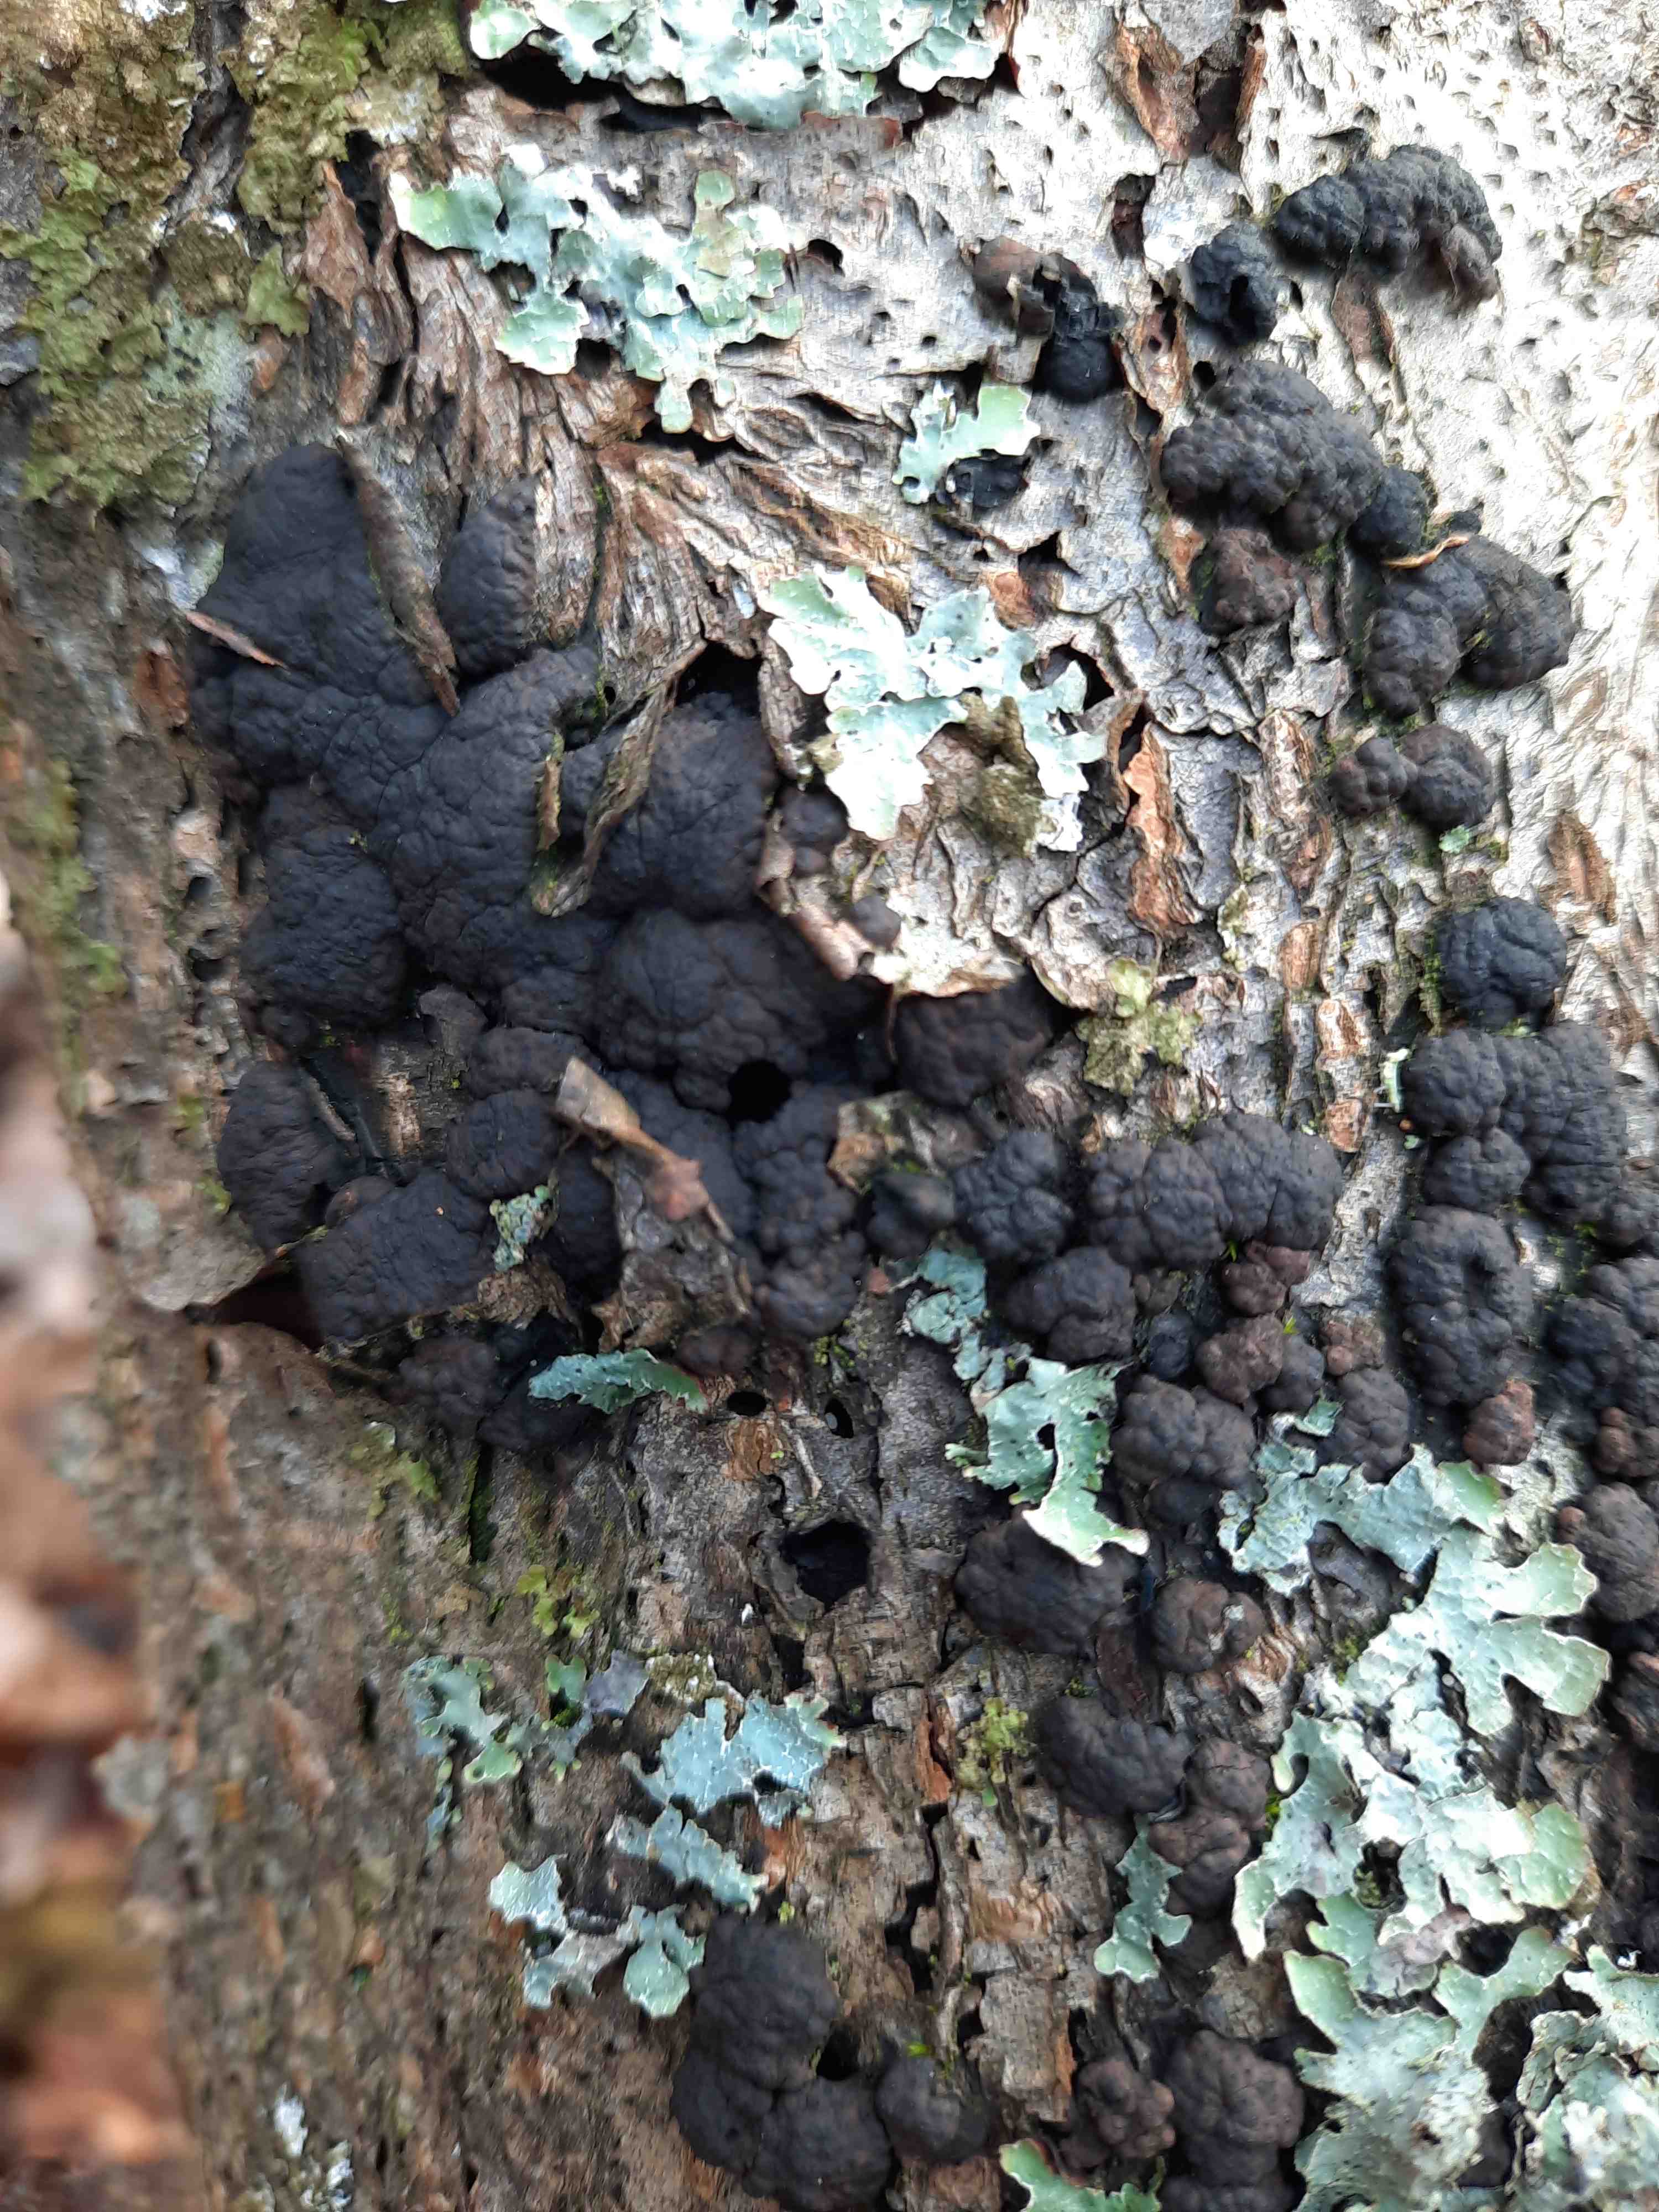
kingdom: Fungi
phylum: Ascomycota
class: Sordariomycetes
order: Xylariales
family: Hypoxylaceae
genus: Jackrogersella
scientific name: Jackrogersella cohaerens
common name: sammenflydende kulbær
